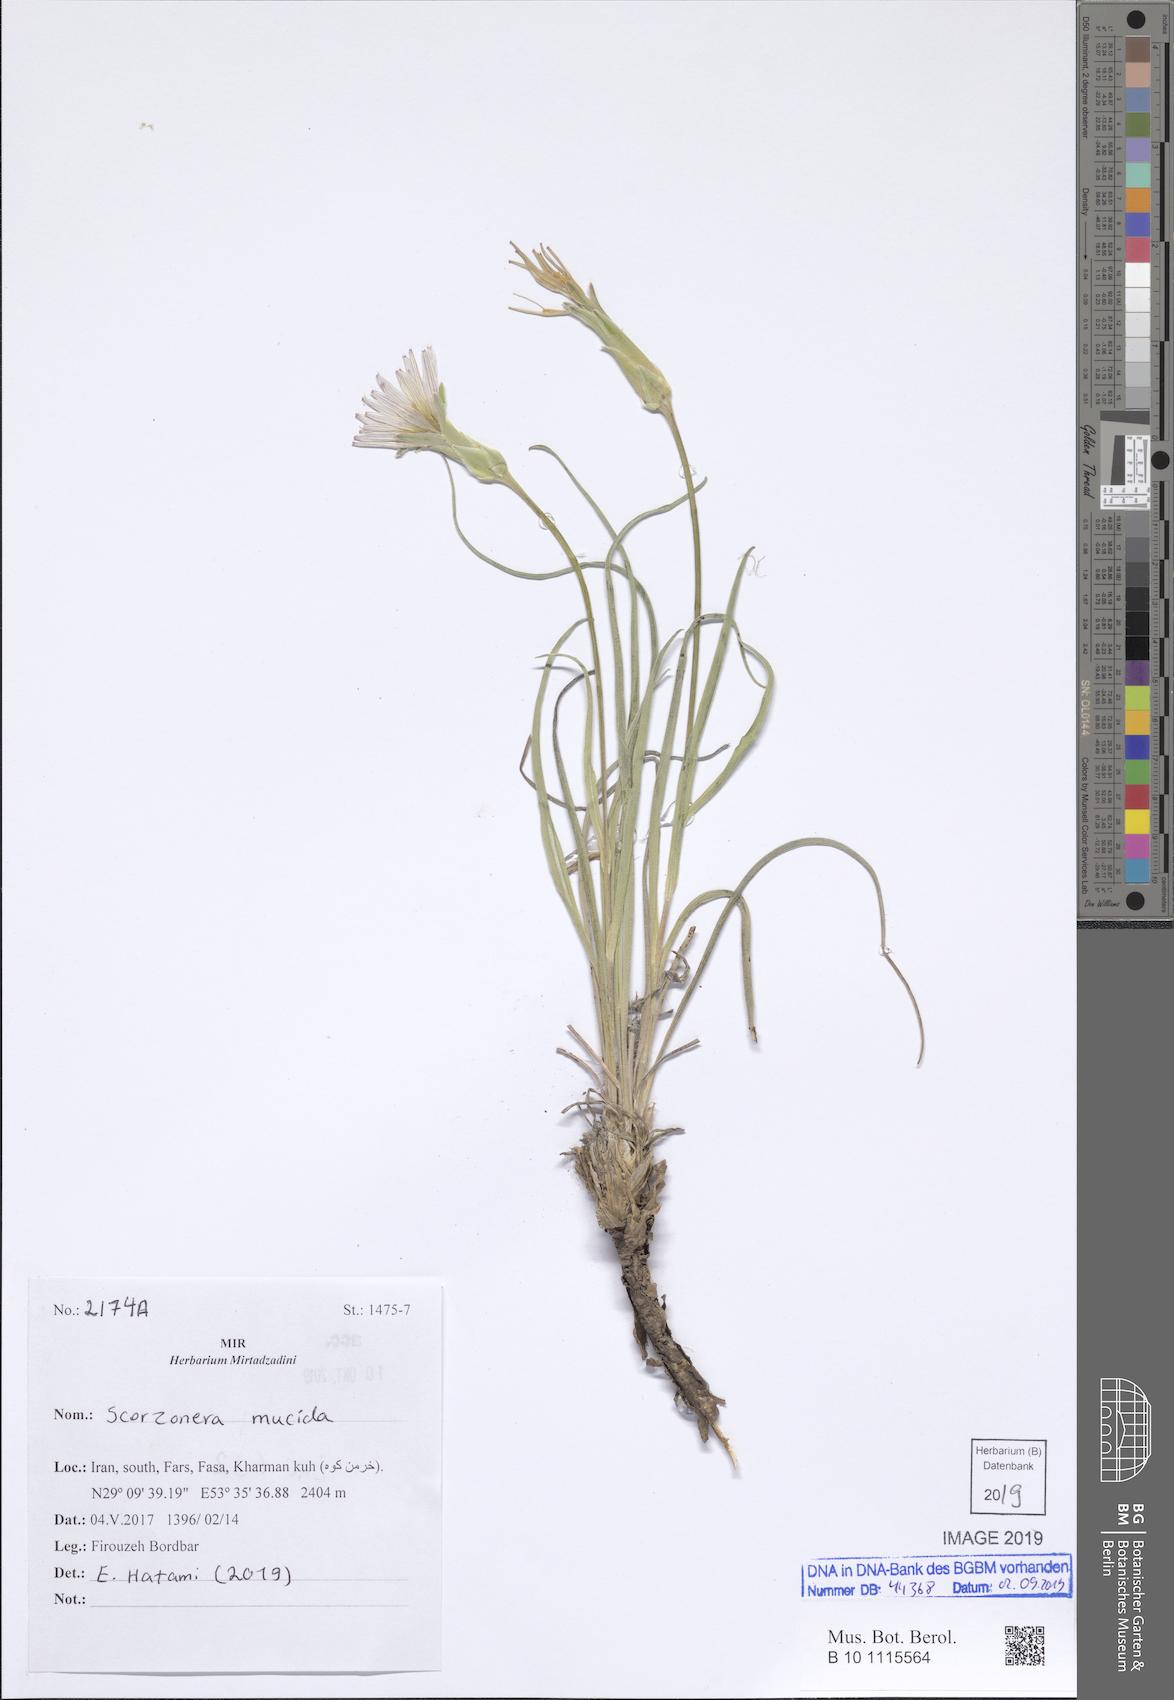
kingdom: Plantae
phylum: Tracheophyta
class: Magnoliopsida
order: Asterales
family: Asteraceae
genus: Candollea
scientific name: Candollea mucida
